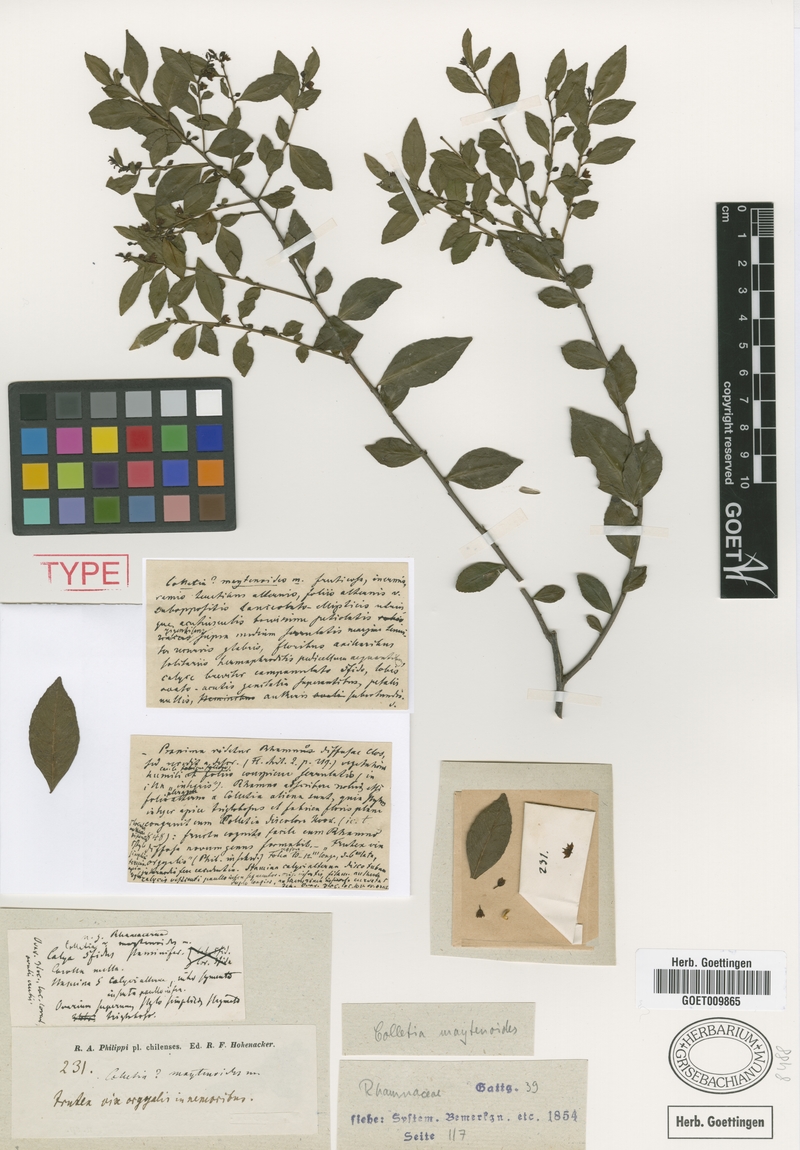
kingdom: Plantae
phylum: Tracheophyta
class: Magnoliopsida
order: Rosales
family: Rhamnaceae
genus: Condalia
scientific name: Condalia maytenoides
